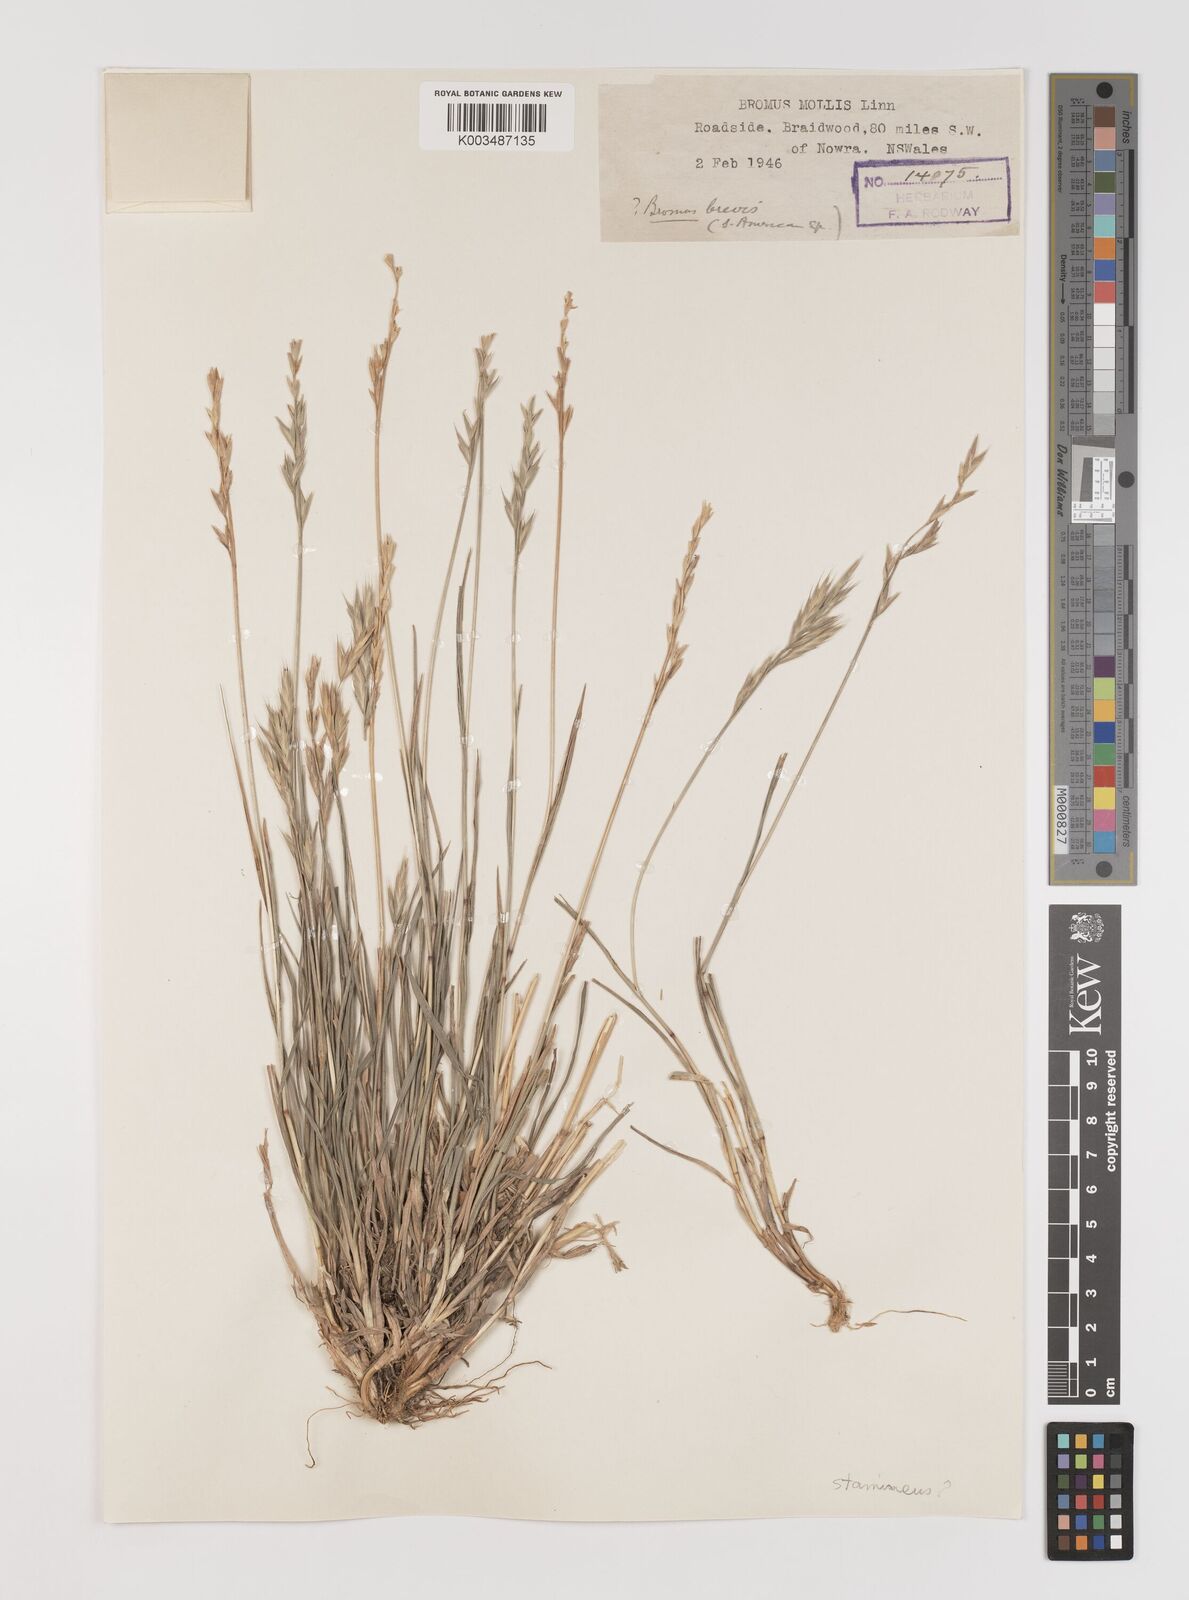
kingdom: Plantae
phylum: Tracheophyta
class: Liliopsida
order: Poales
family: Poaceae
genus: Bromus
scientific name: Bromus cebadilla
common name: Southern brome
